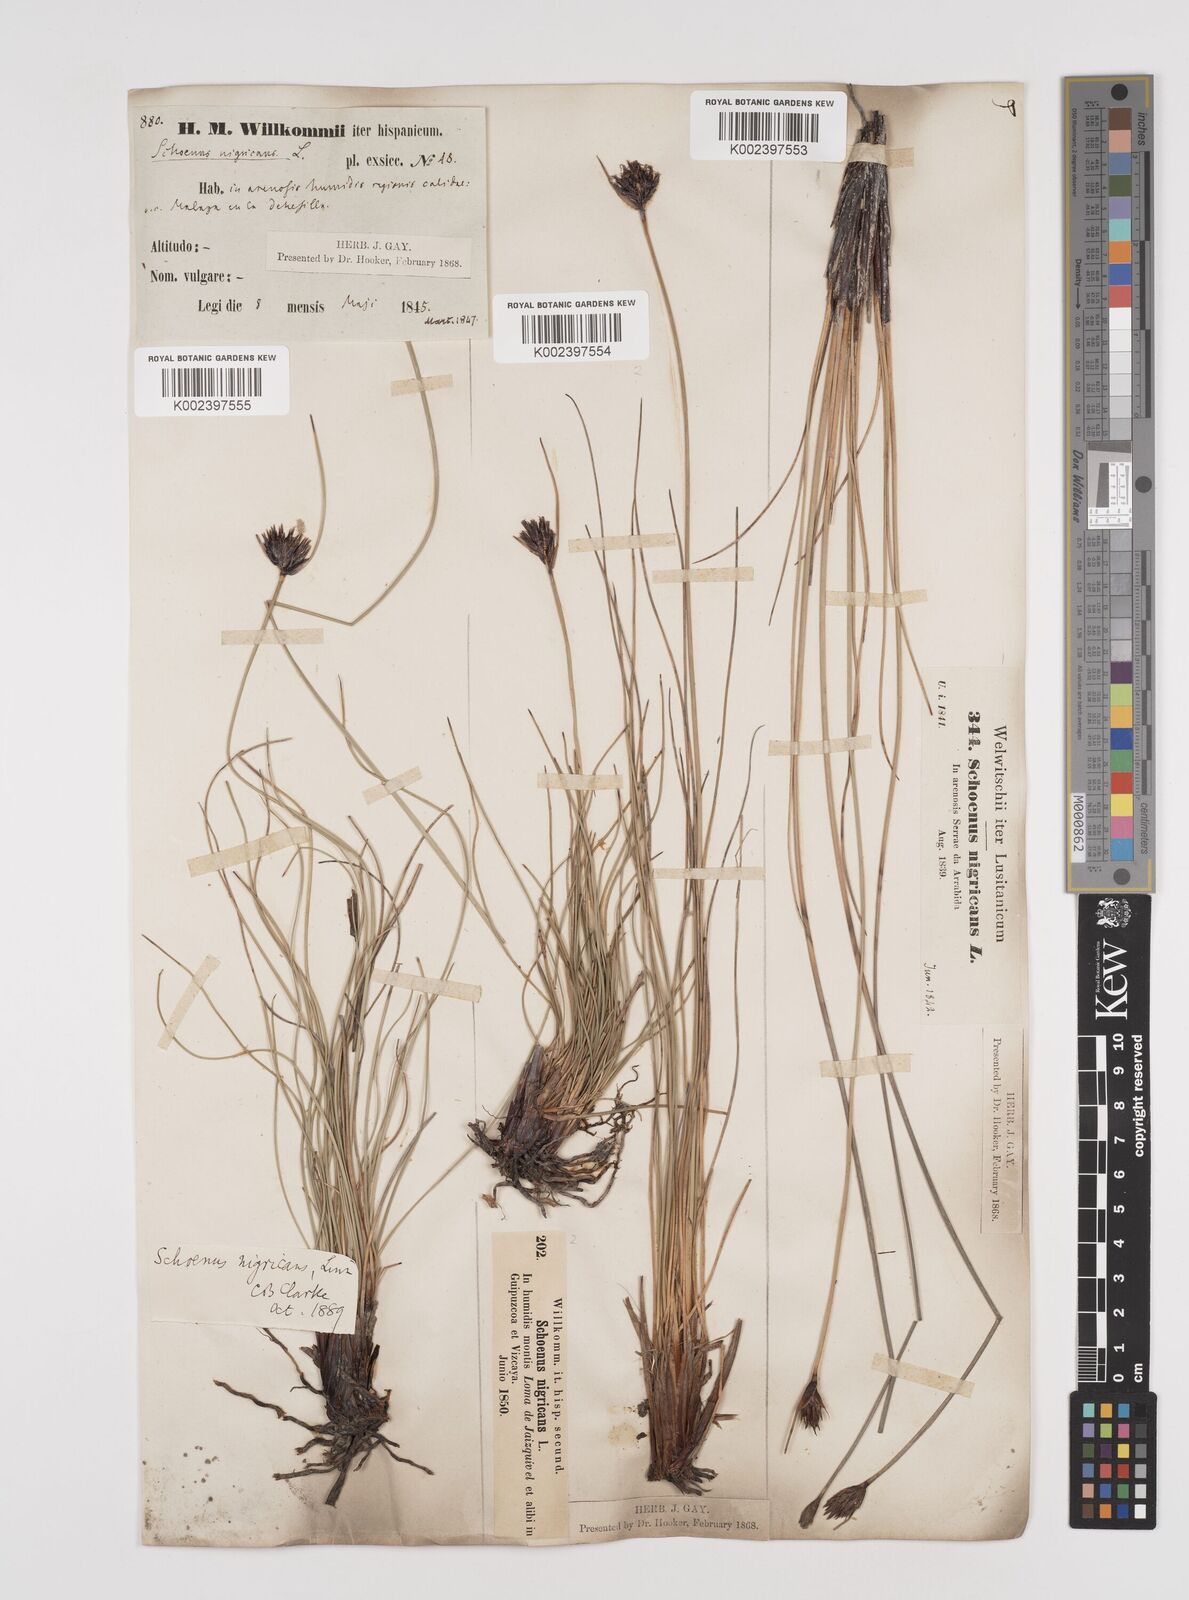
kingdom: Plantae
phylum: Tracheophyta
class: Liliopsida
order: Poales
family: Cyperaceae
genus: Schoenus
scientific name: Schoenus nigricans
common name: Black bog-rush
